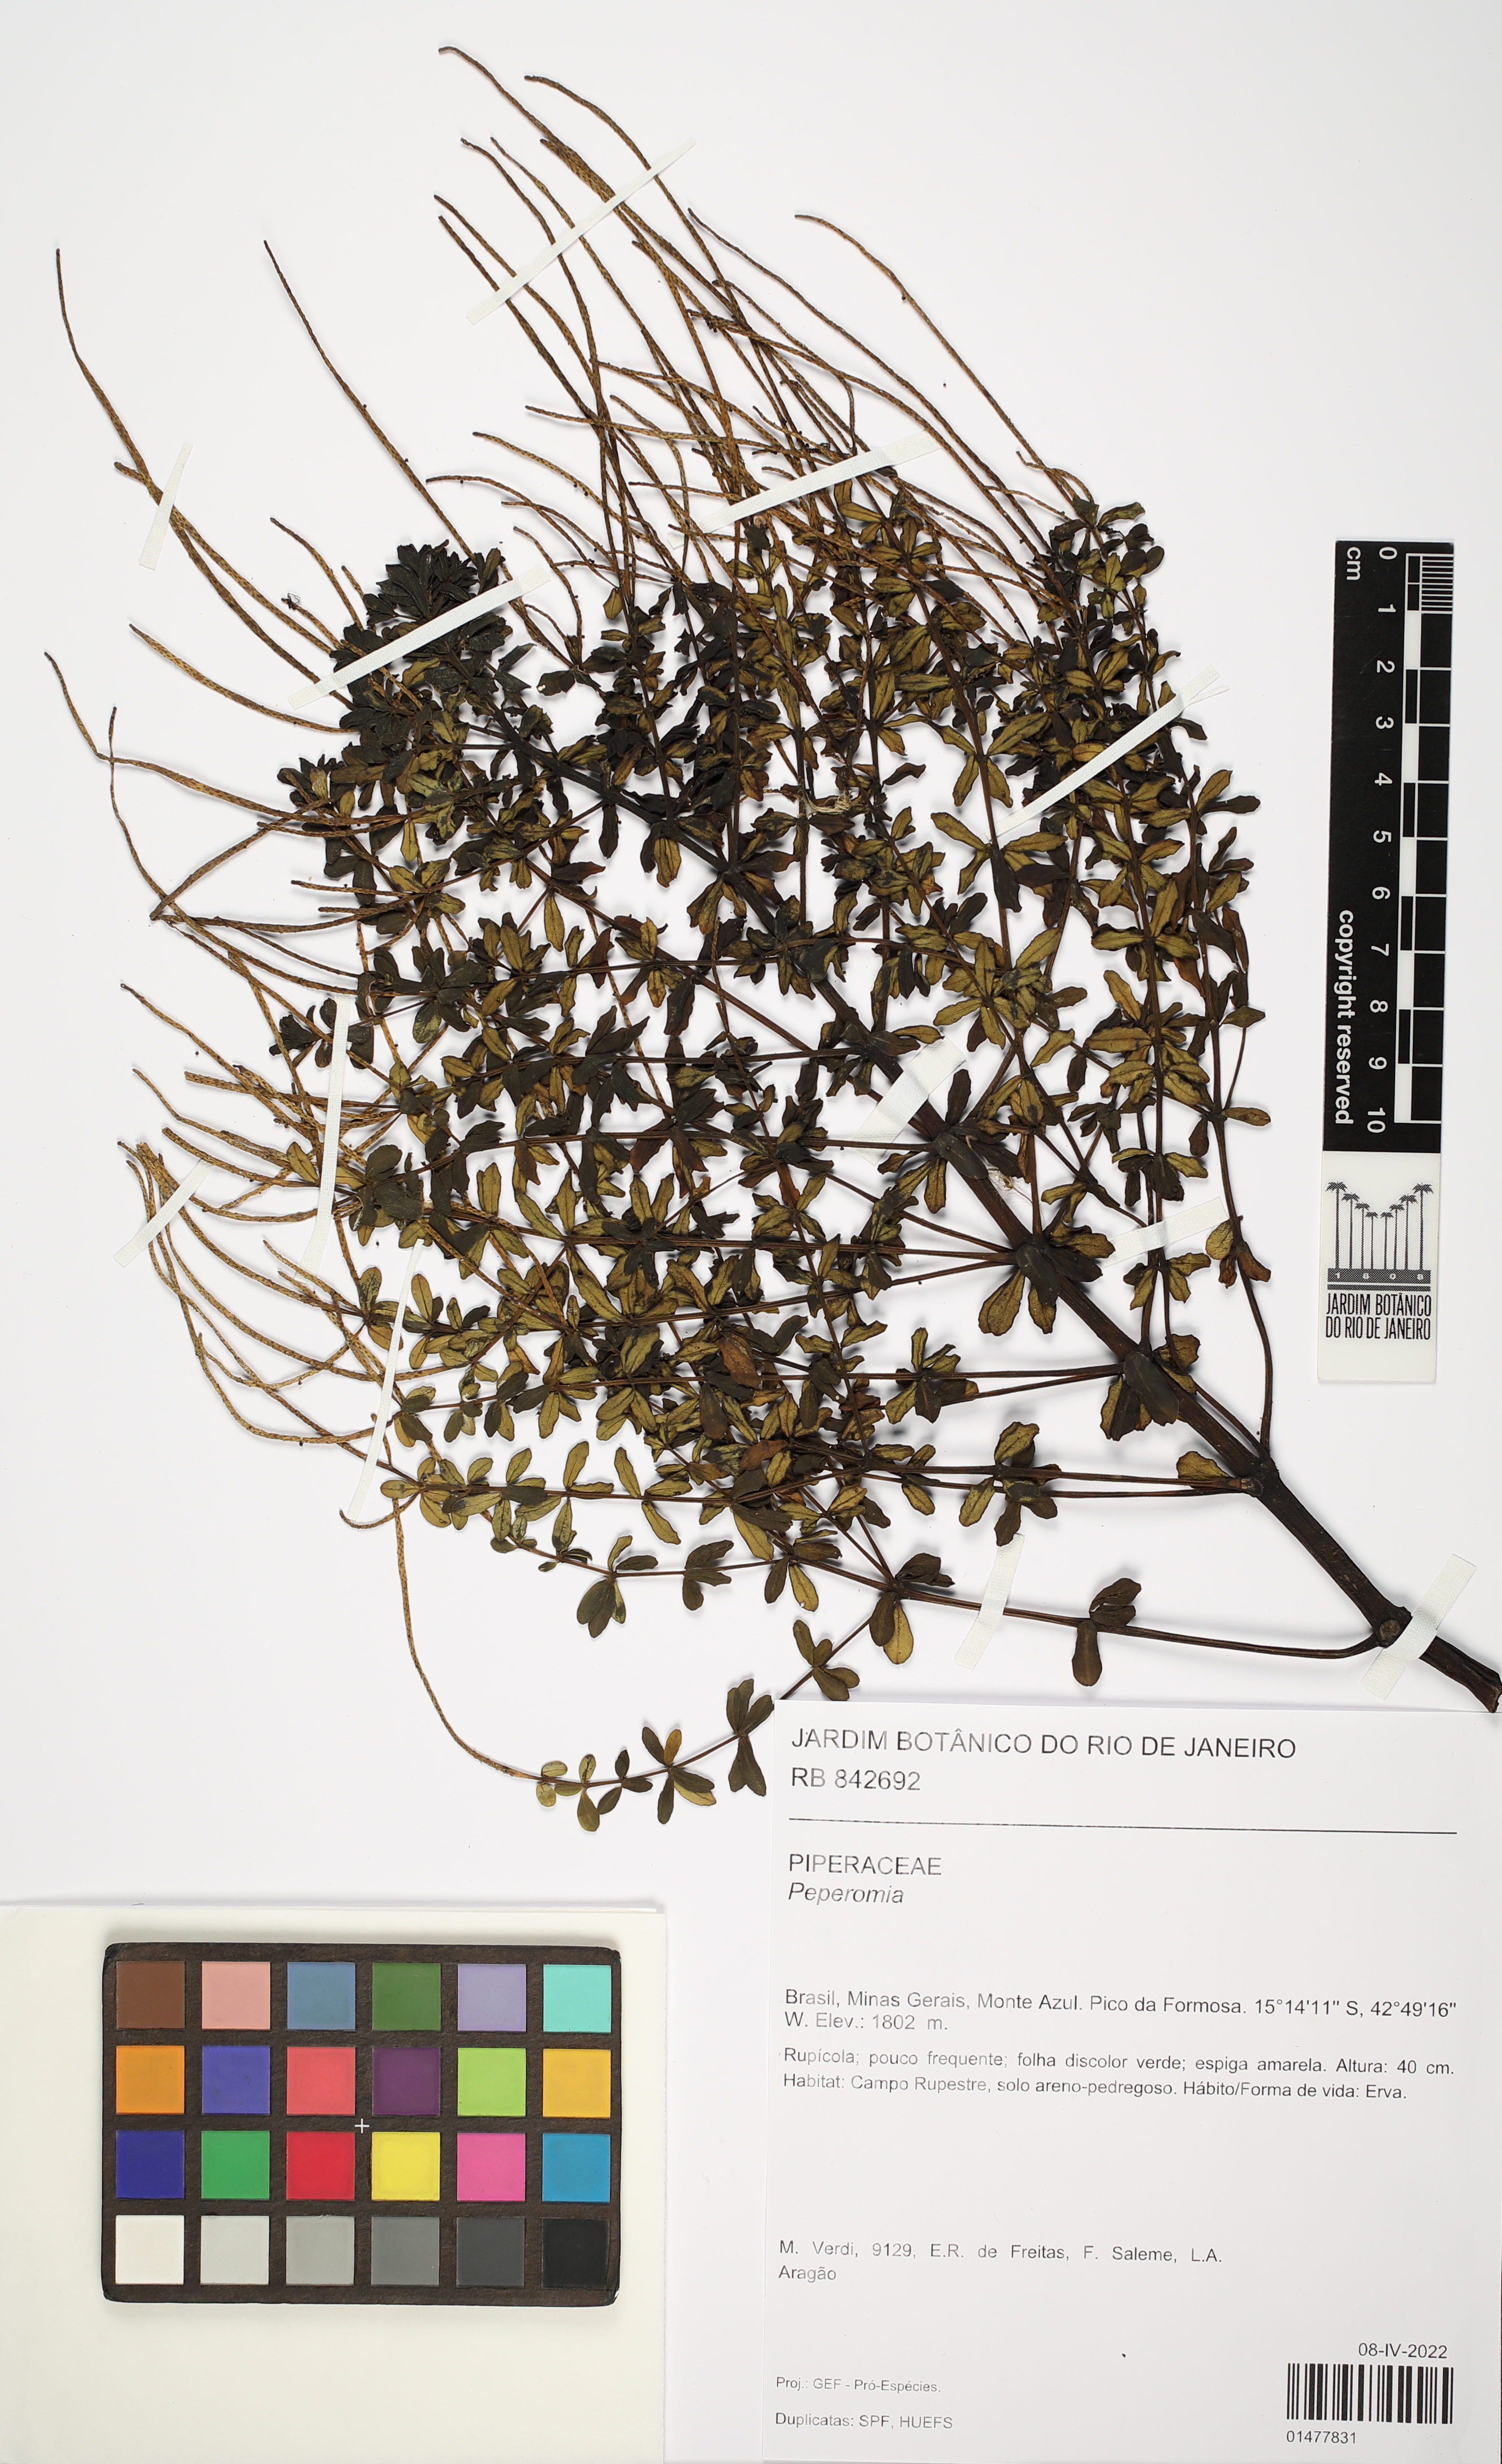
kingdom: Plantae
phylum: Tracheophyta
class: Magnoliopsida
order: Piperales
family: Piperaceae
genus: Peperomia
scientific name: Peperomia
